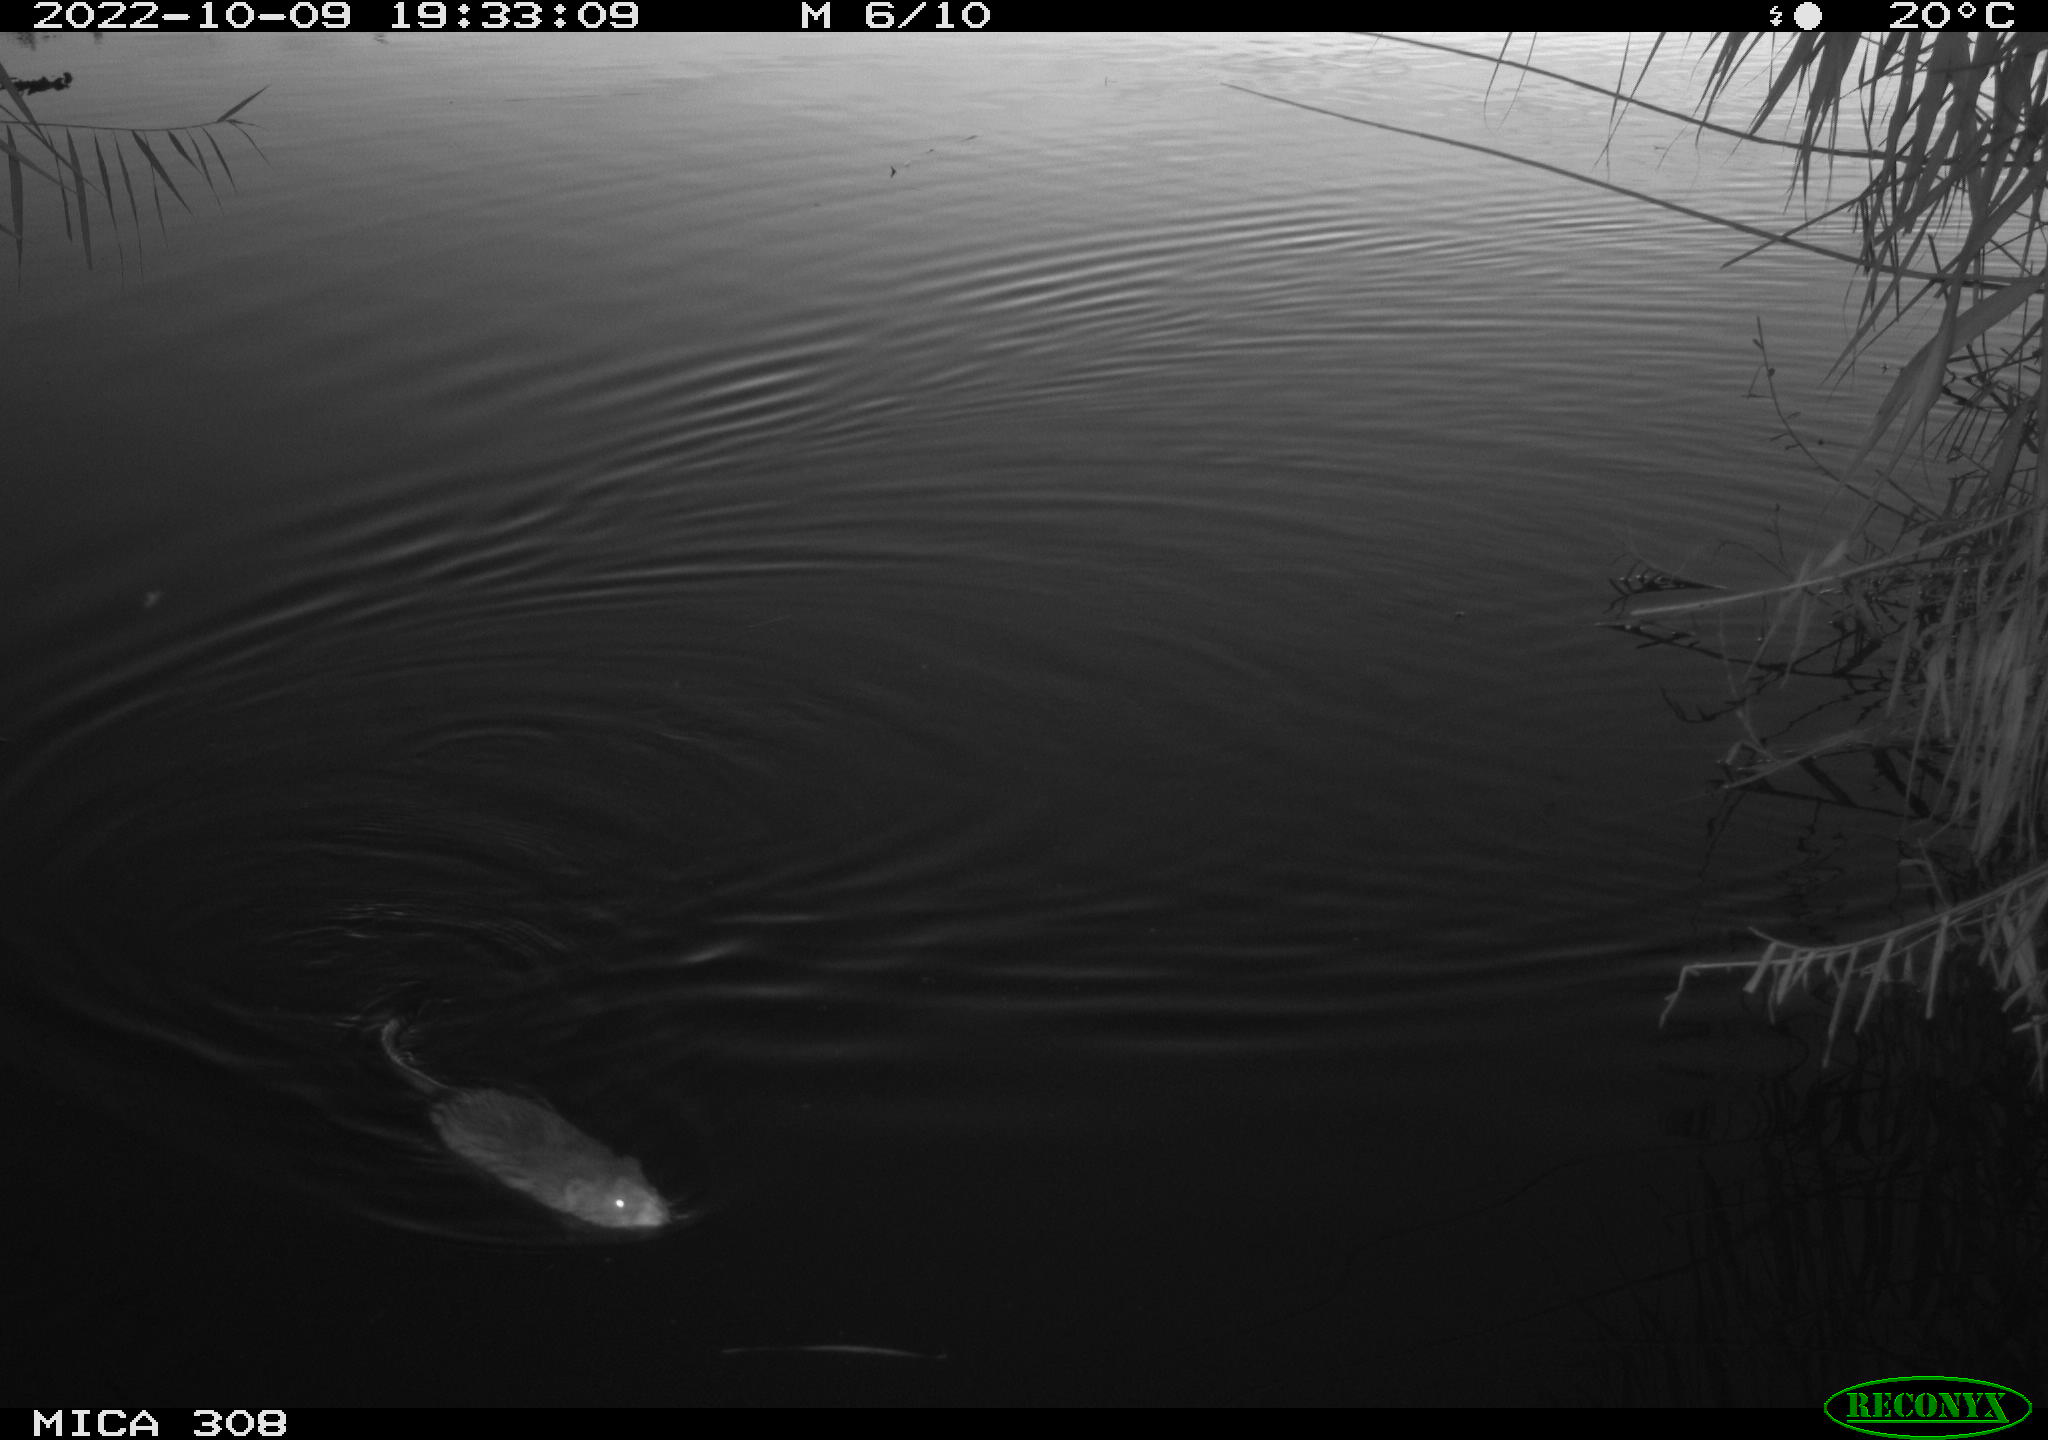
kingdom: Animalia
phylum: Chordata
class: Mammalia
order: Rodentia
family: Muridae
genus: Rattus
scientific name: Rattus norvegicus
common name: Brown rat
